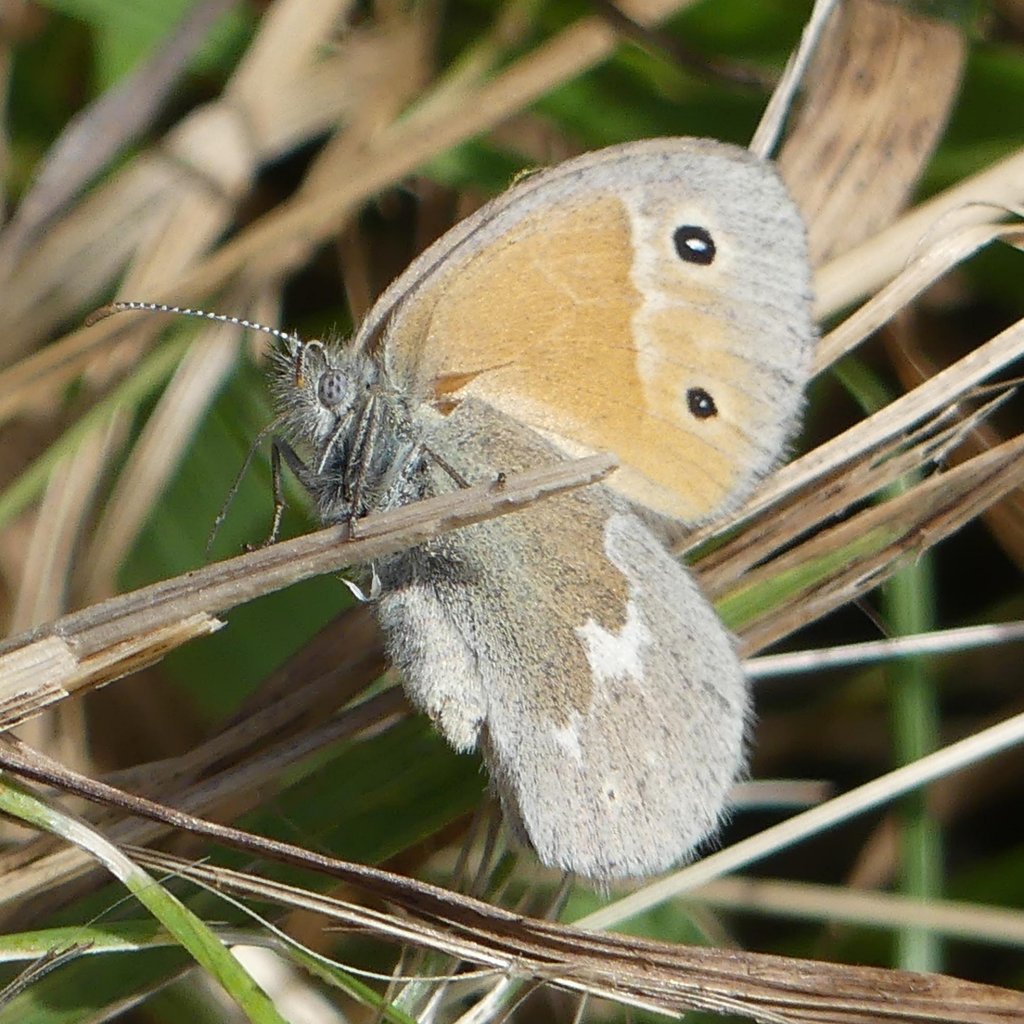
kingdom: Animalia
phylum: Arthropoda
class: Insecta
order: Lepidoptera
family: Nymphalidae
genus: Coenonympha
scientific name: Coenonympha tullia
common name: Large Heath
